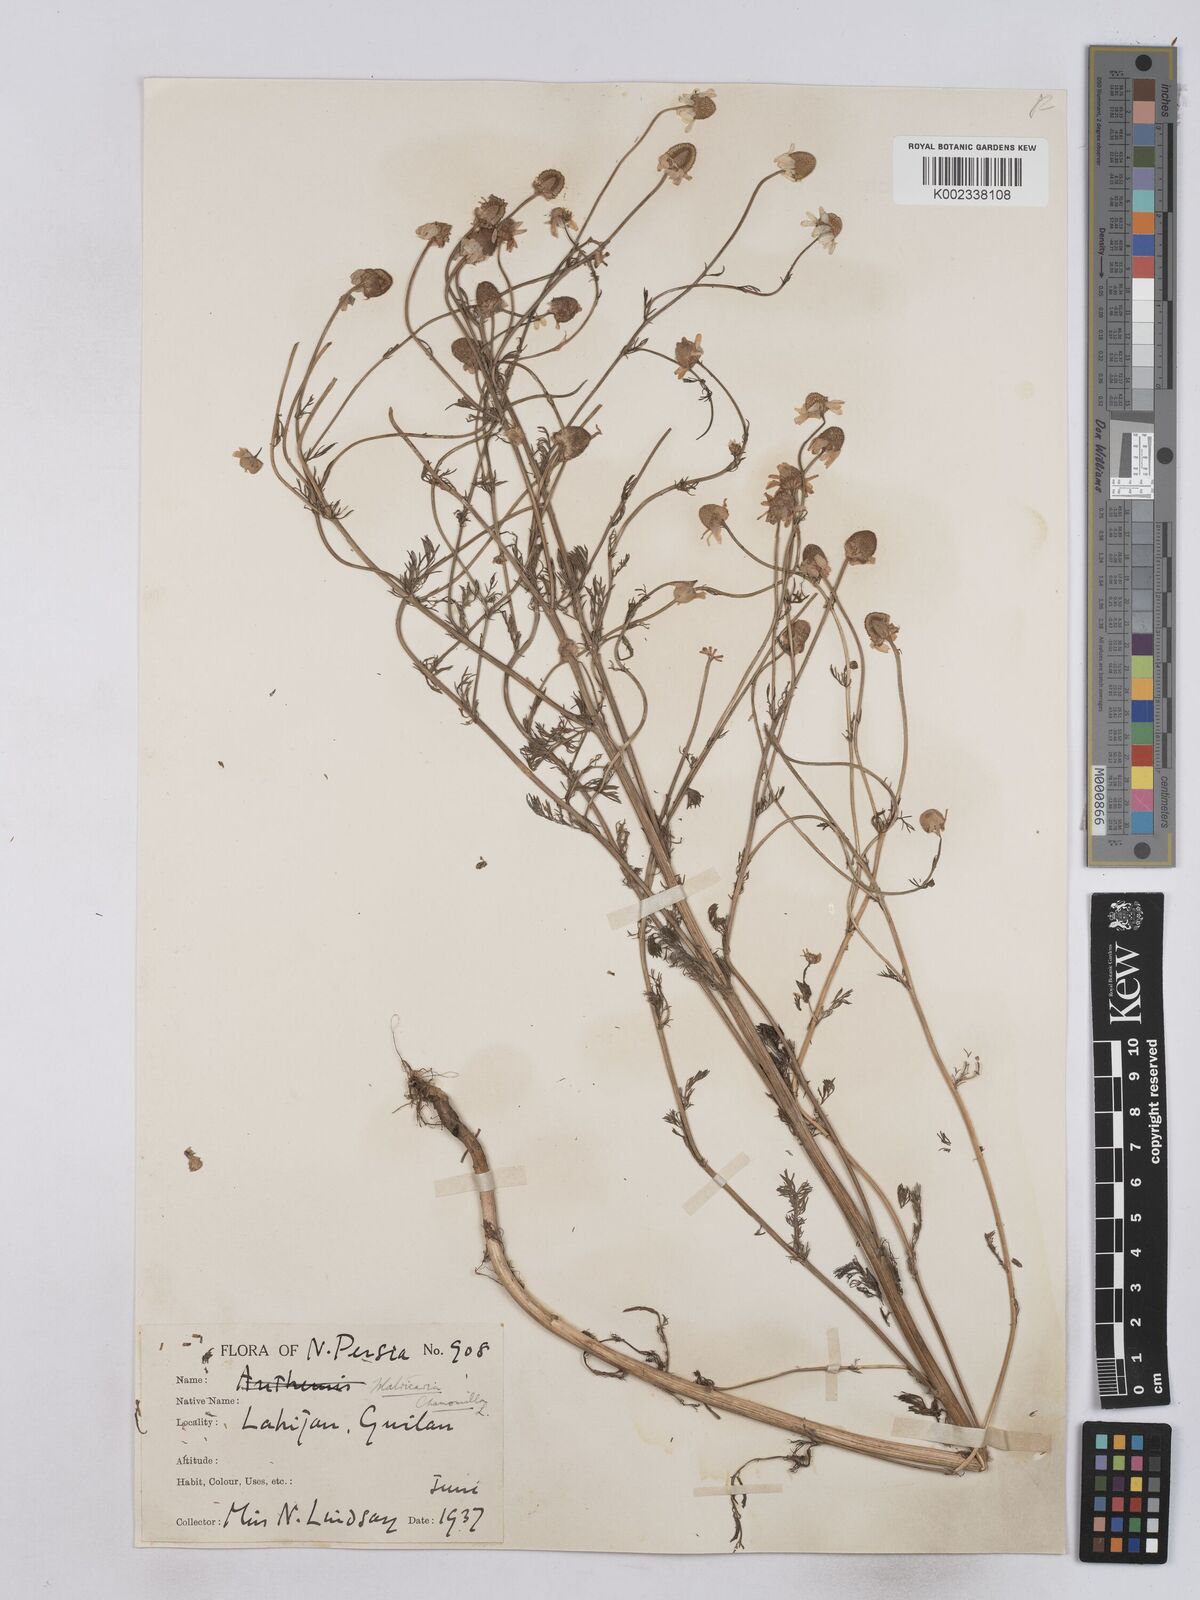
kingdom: Plantae
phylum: Tracheophyta
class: Magnoliopsida
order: Asterales
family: Asteraceae
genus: Matricaria
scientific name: Matricaria chamomilla
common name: Scented mayweed
